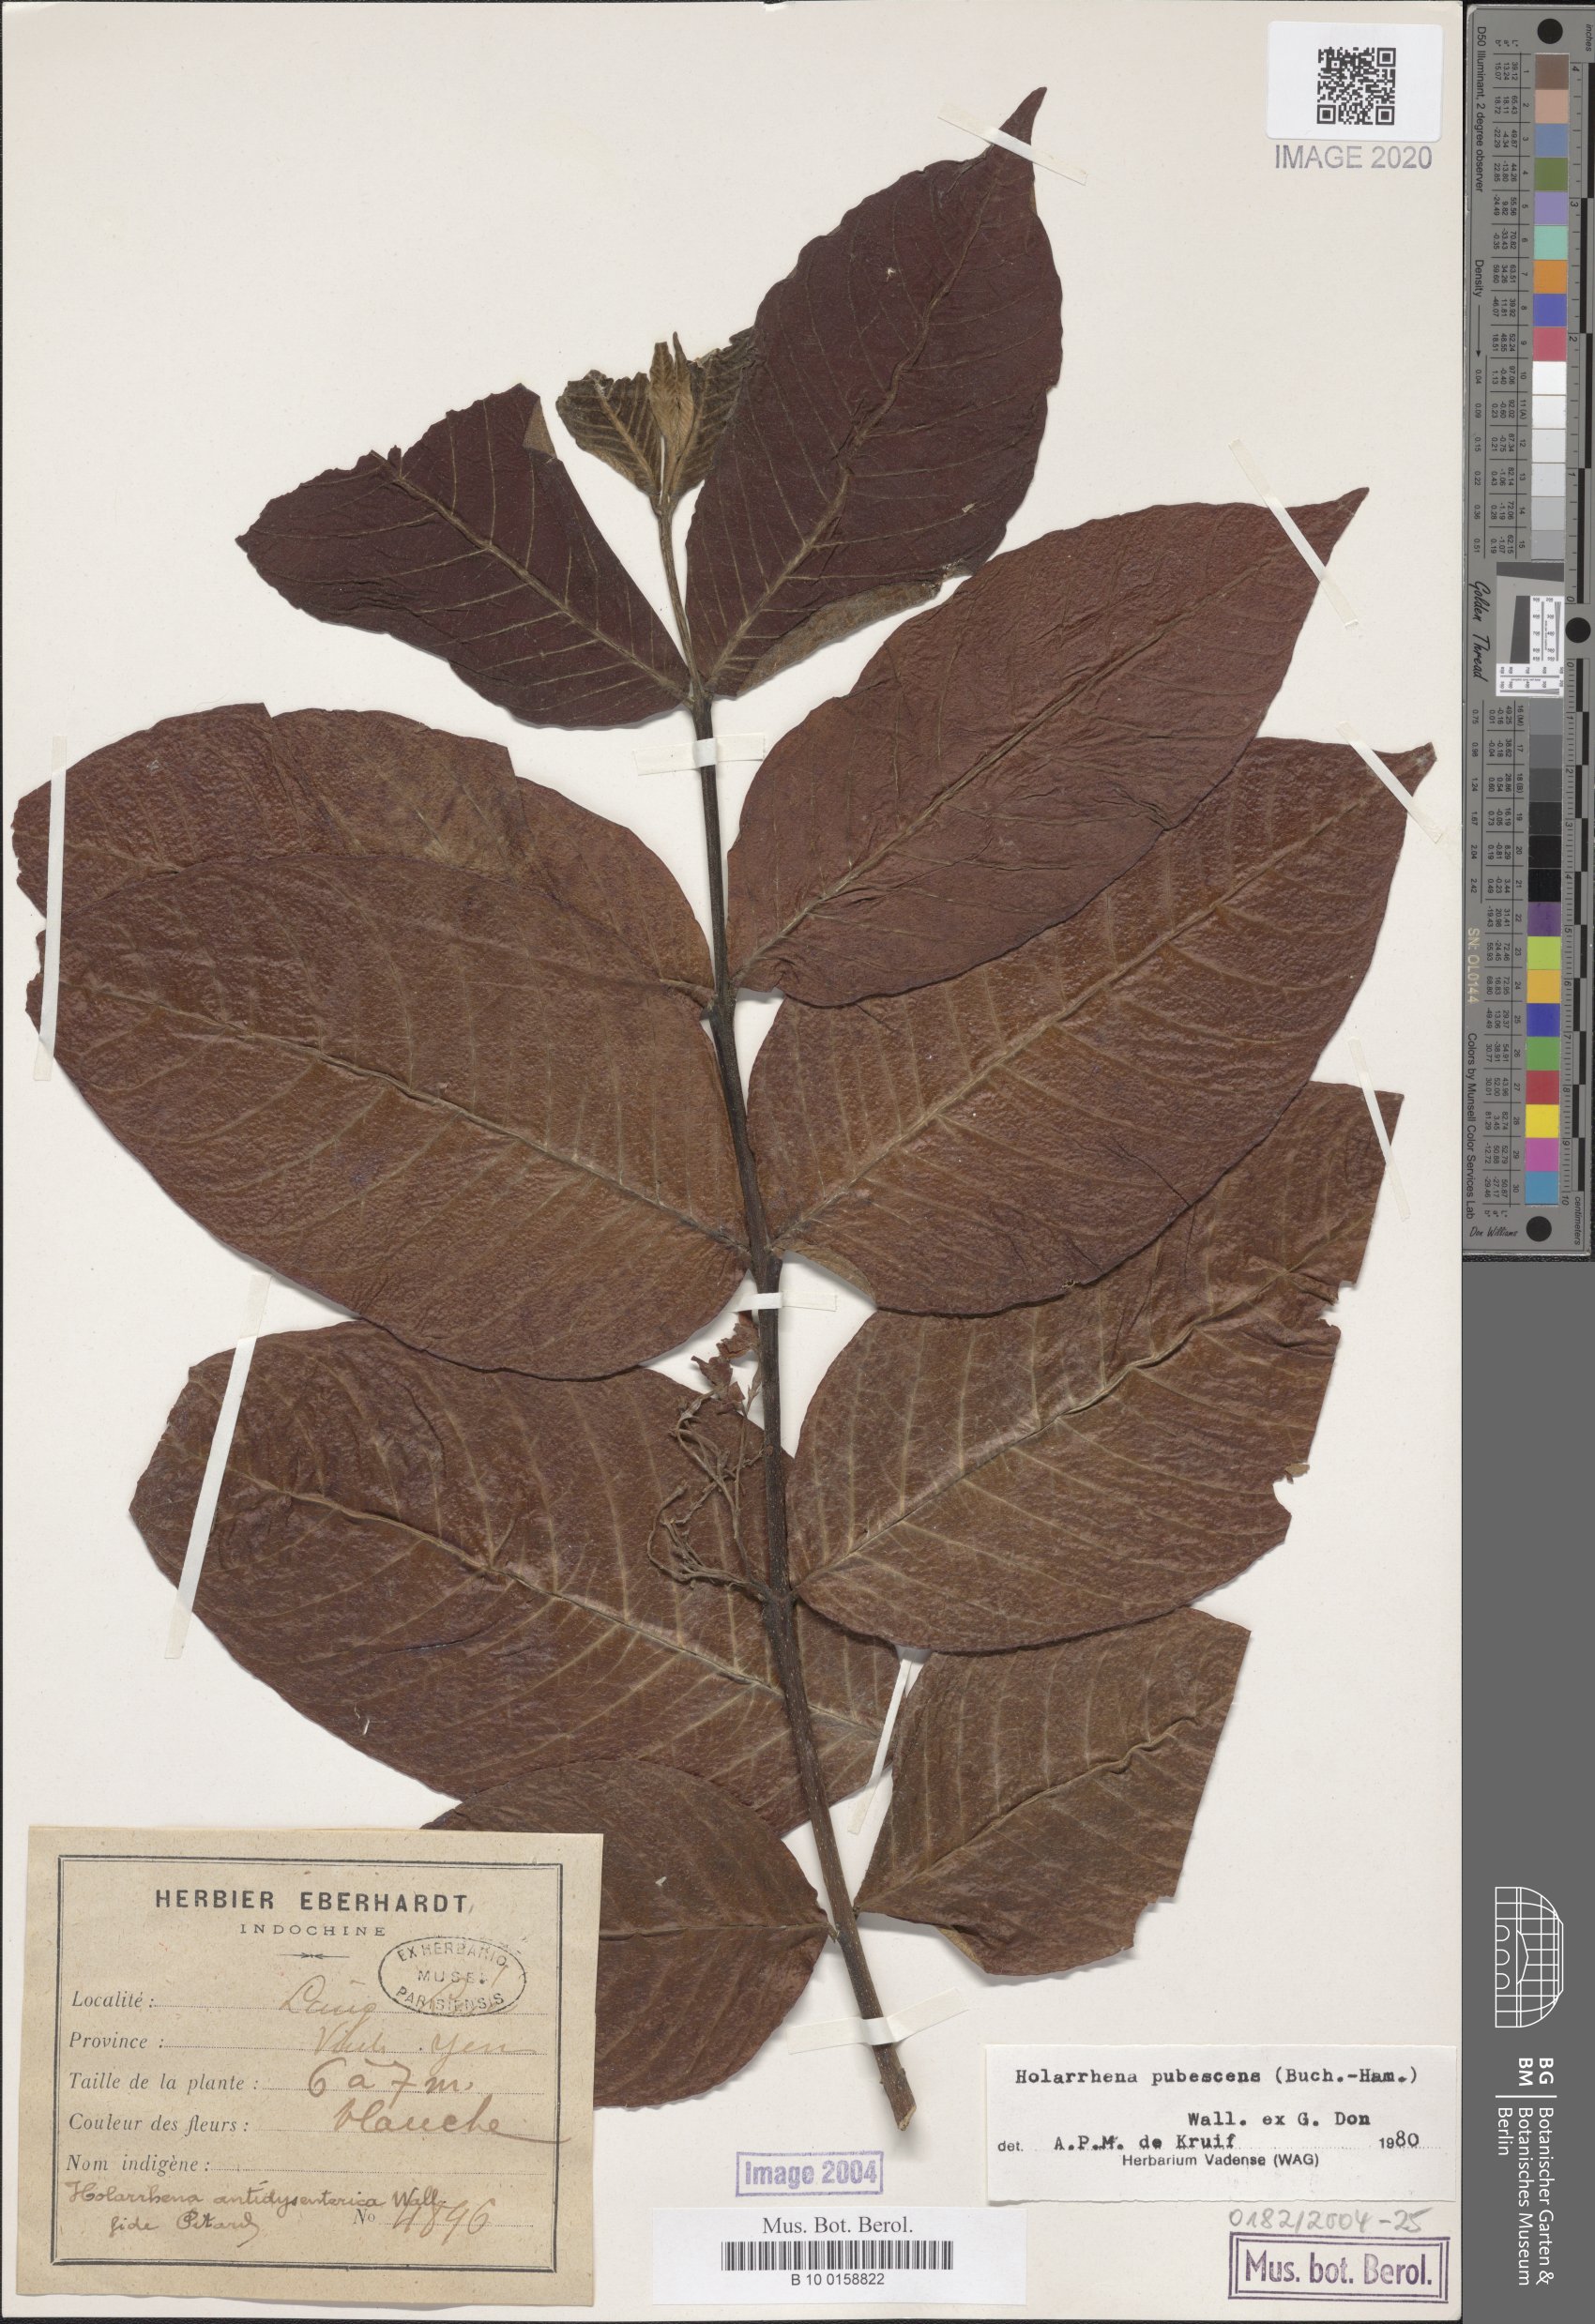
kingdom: Plantae
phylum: Tracheophyta
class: Magnoliopsida
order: Gentianales
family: Apocynaceae
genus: Holarrhena
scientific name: Holarrhena pubescens
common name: Bitter oleander
